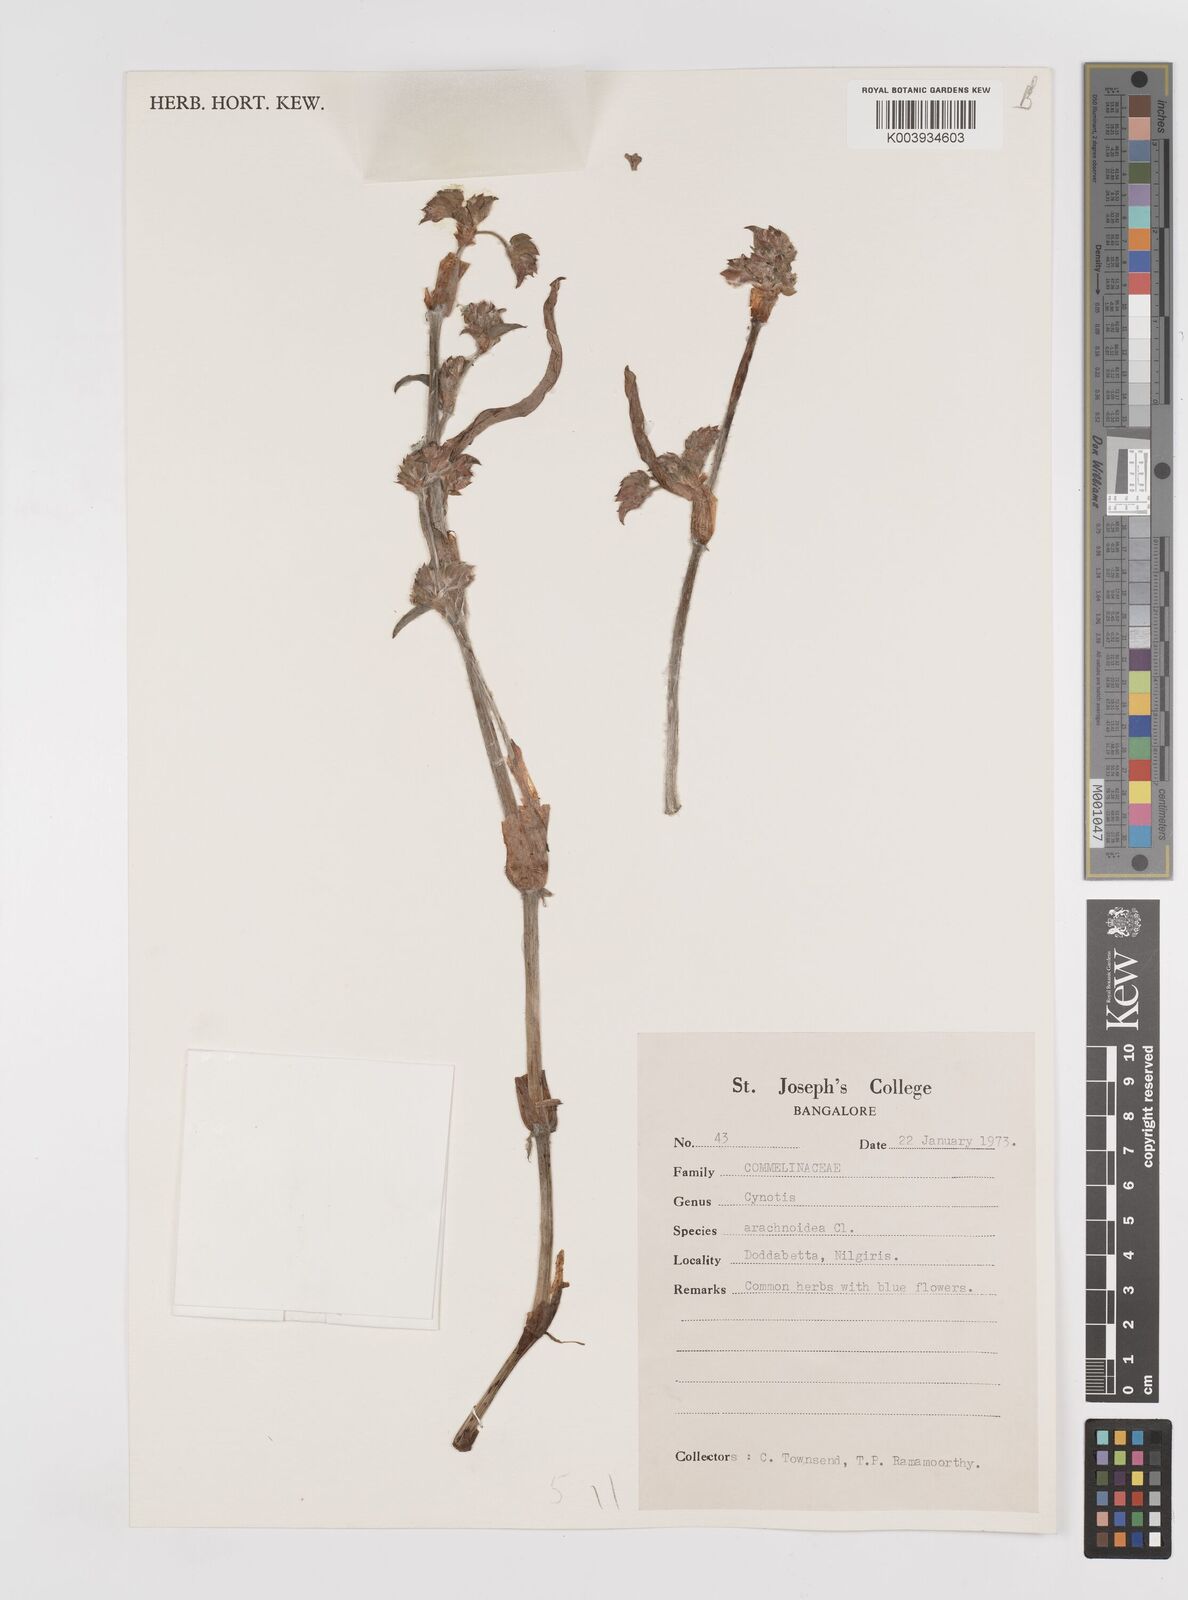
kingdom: Plantae
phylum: Tracheophyta
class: Liliopsida
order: Commelinales
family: Commelinaceae
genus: Cyanotis
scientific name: Cyanotis arachnoidea
